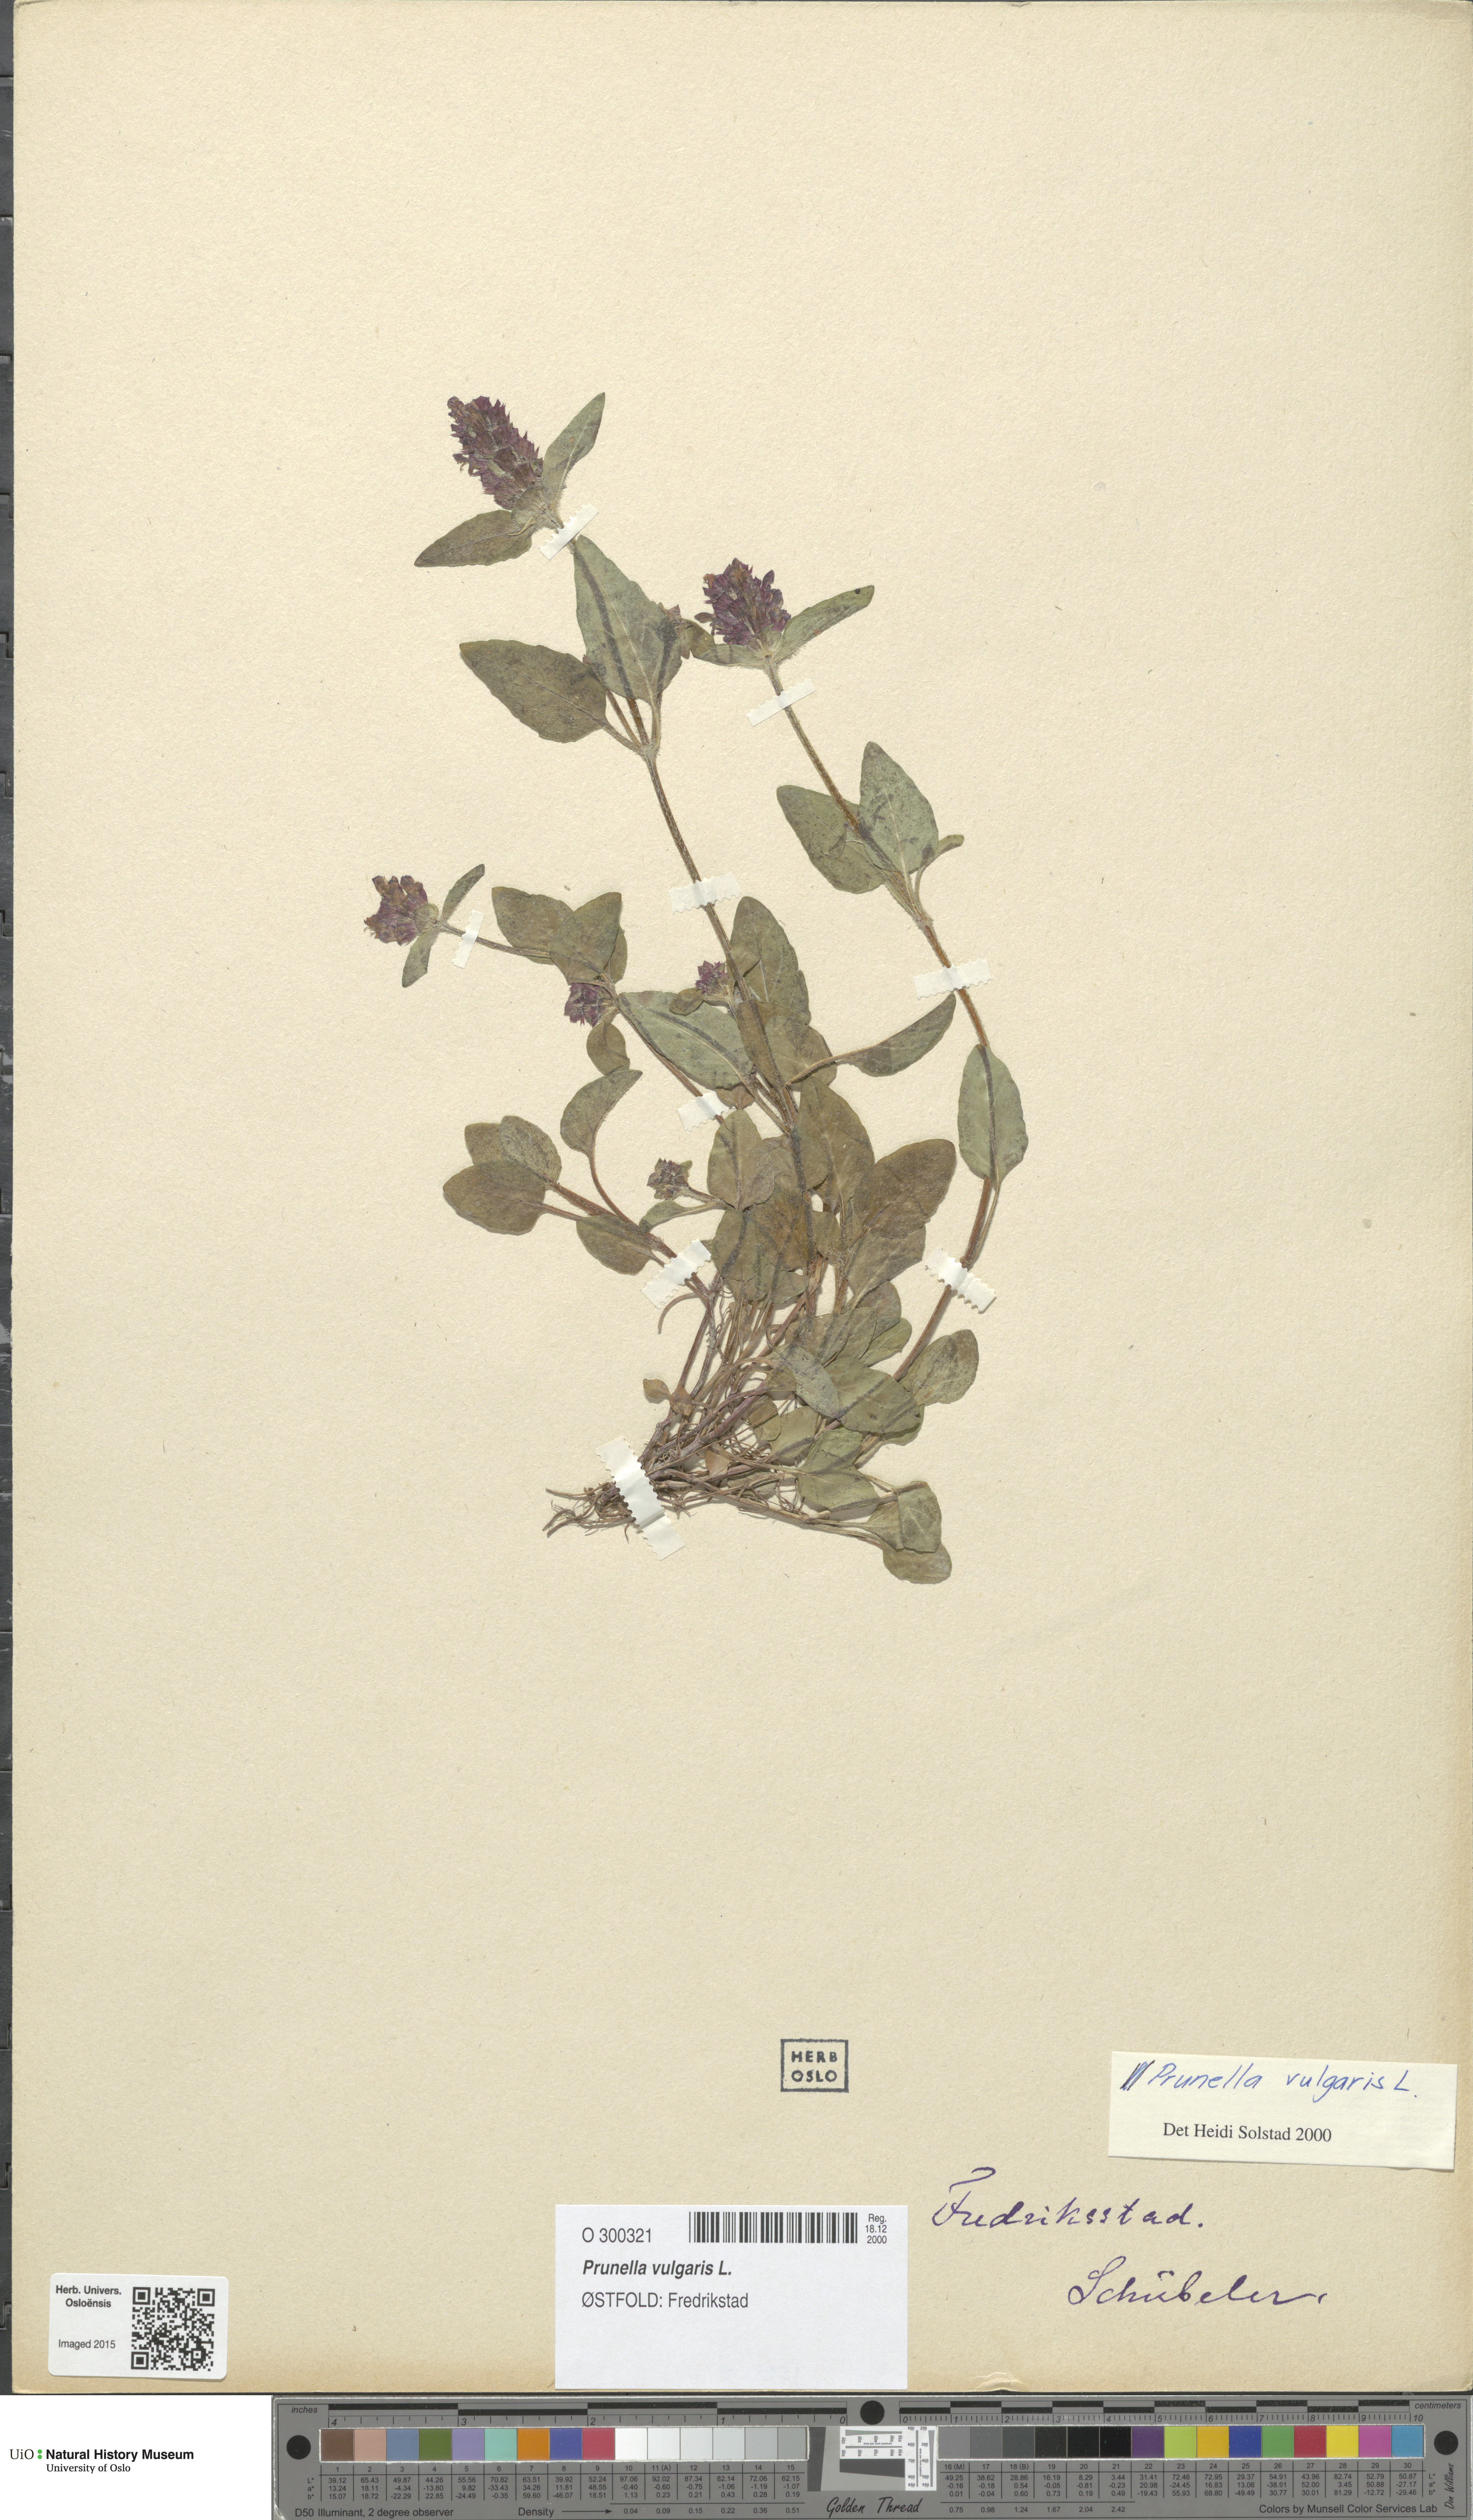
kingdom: Plantae
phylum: Tracheophyta
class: Magnoliopsida
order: Lamiales
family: Lamiaceae
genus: Prunella
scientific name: Prunella vulgaris
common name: Heal-all
